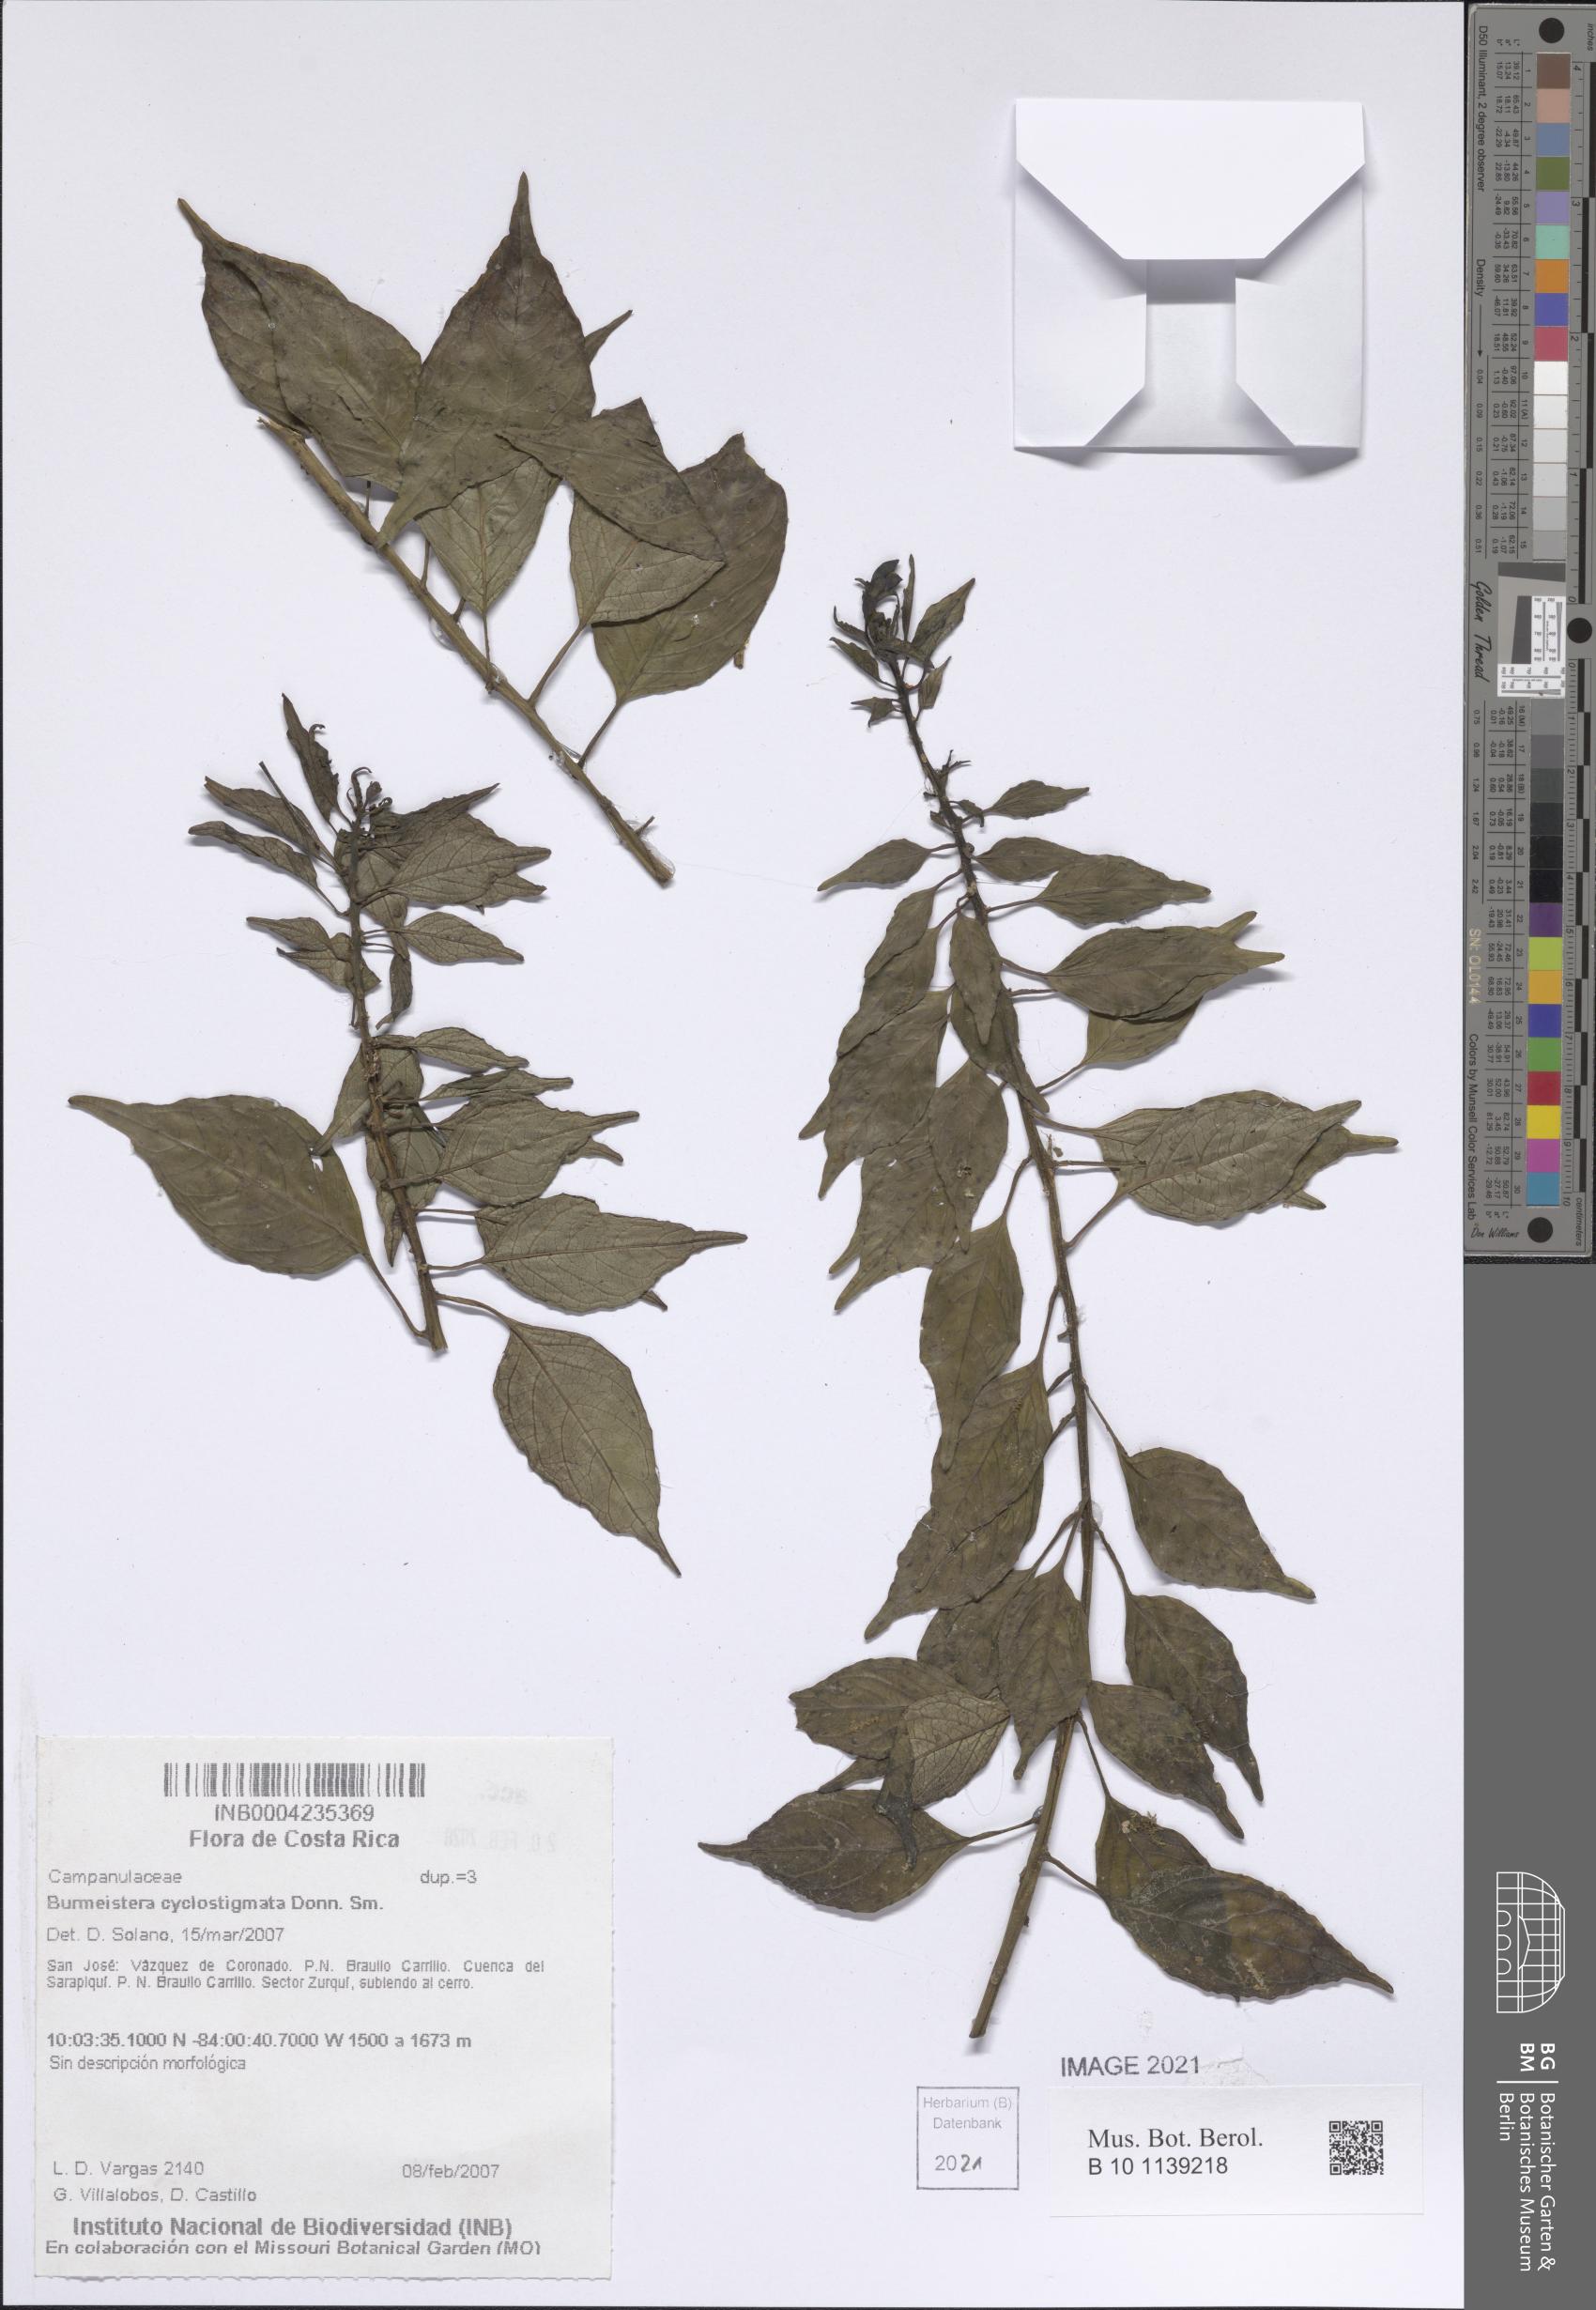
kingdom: Plantae
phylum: Tracheophyta
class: Magnoliopsida
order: Asterales
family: Campanulaceae
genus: Burmeistera
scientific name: Burmeistera cyclostigmata
